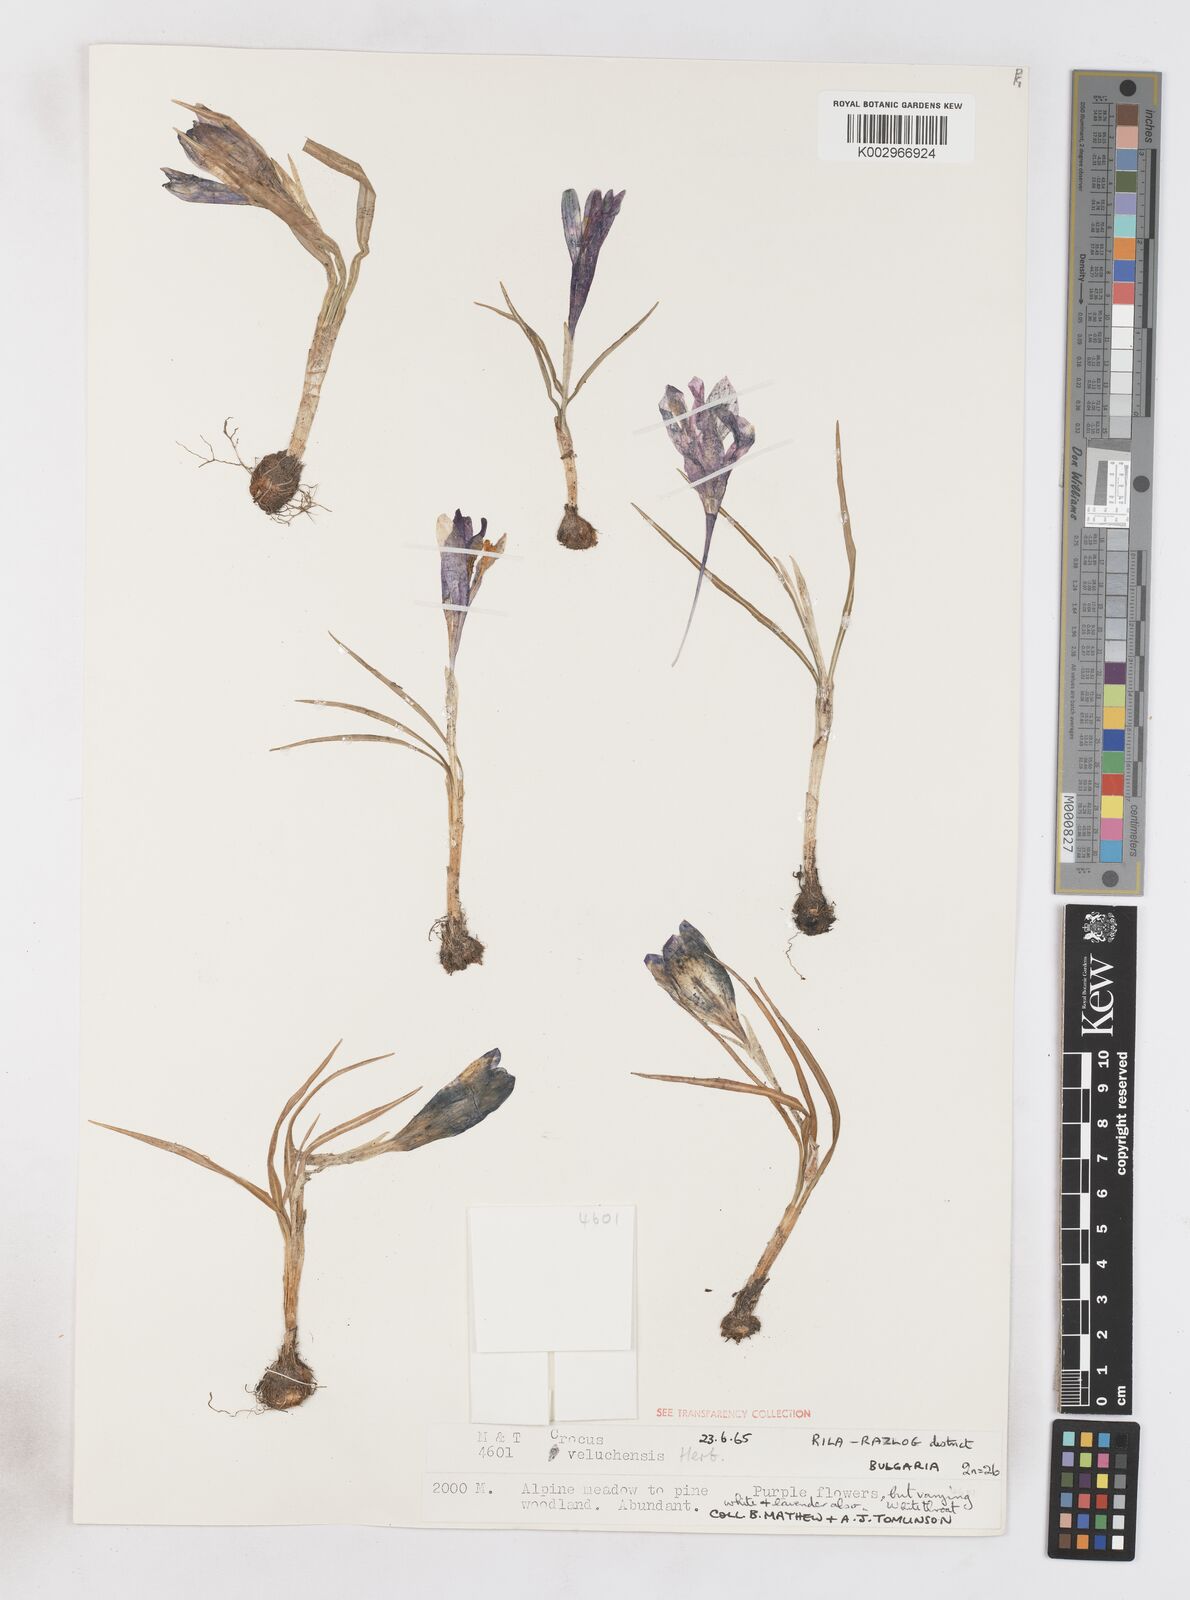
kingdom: Plantae
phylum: Tracheophyta
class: Liliopsida
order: Asparagales
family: Iridaceae
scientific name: Iridaceae
